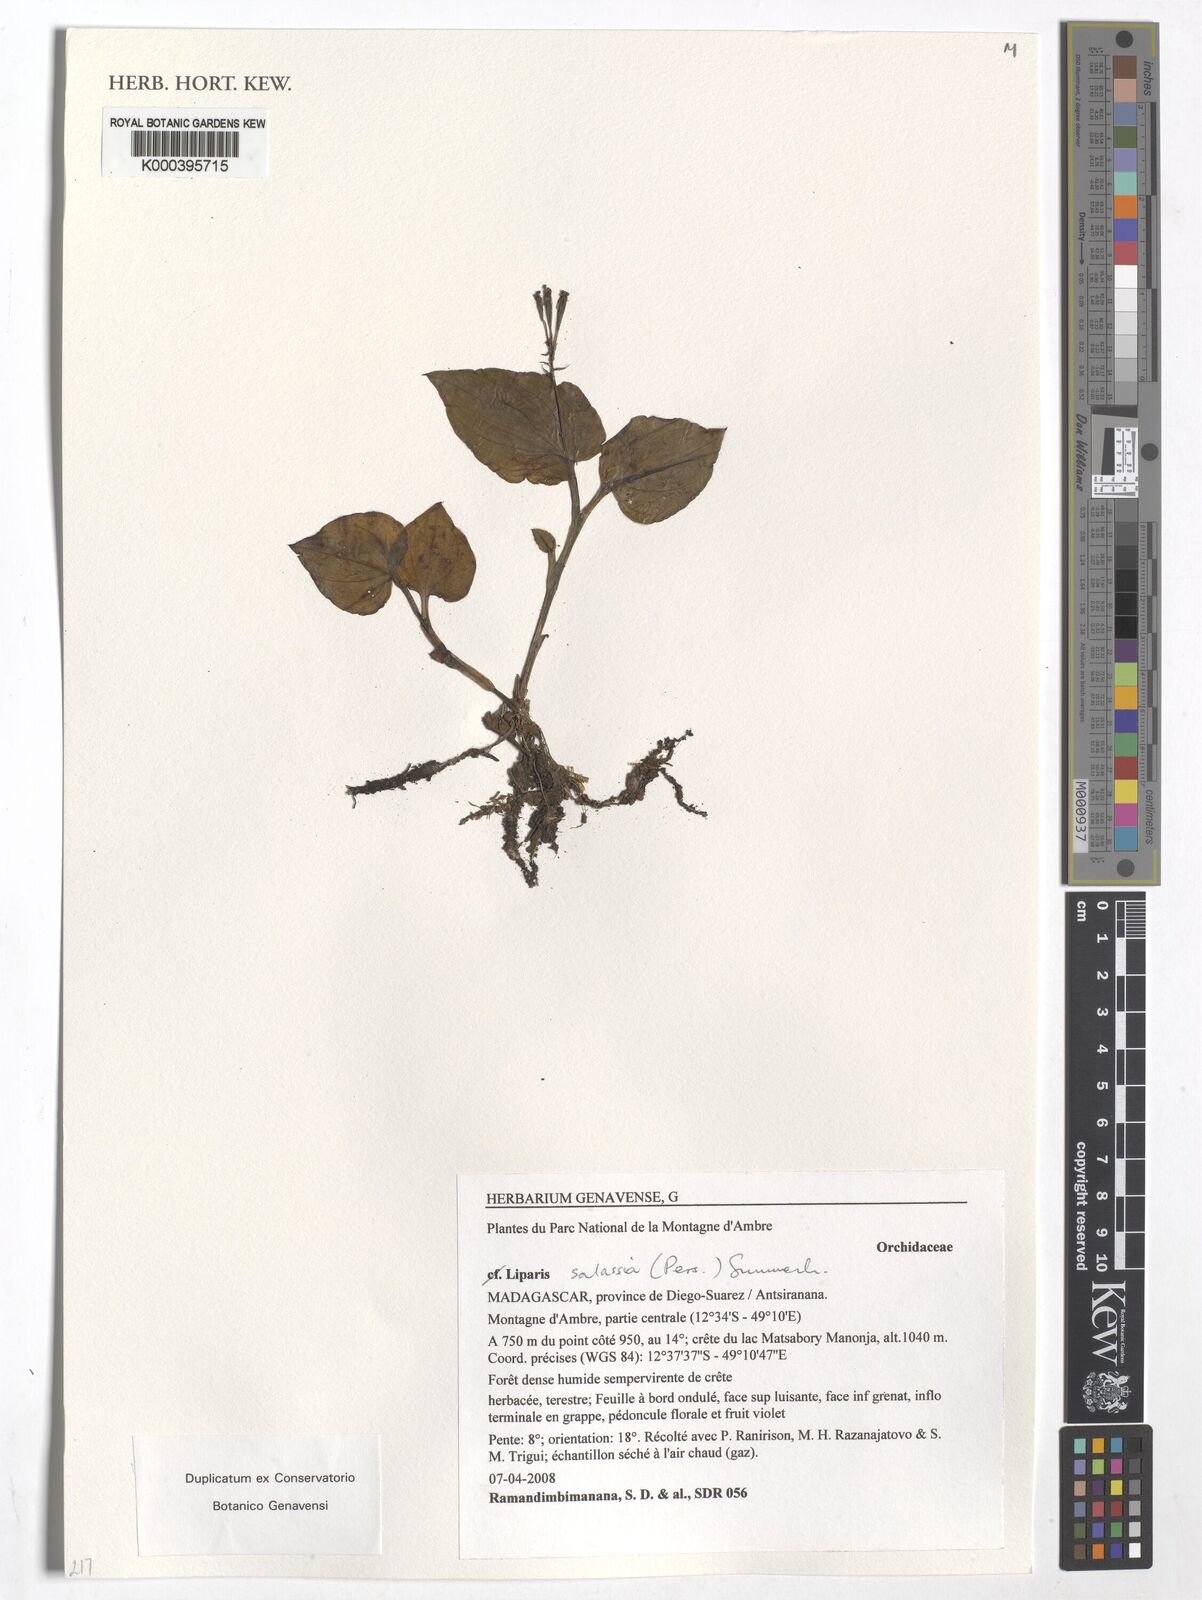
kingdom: Plantae
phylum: Tracheophyta
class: Liliopsida
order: Asparagales
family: Orchidaceae
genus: Liparis
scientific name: Liparis salassia
